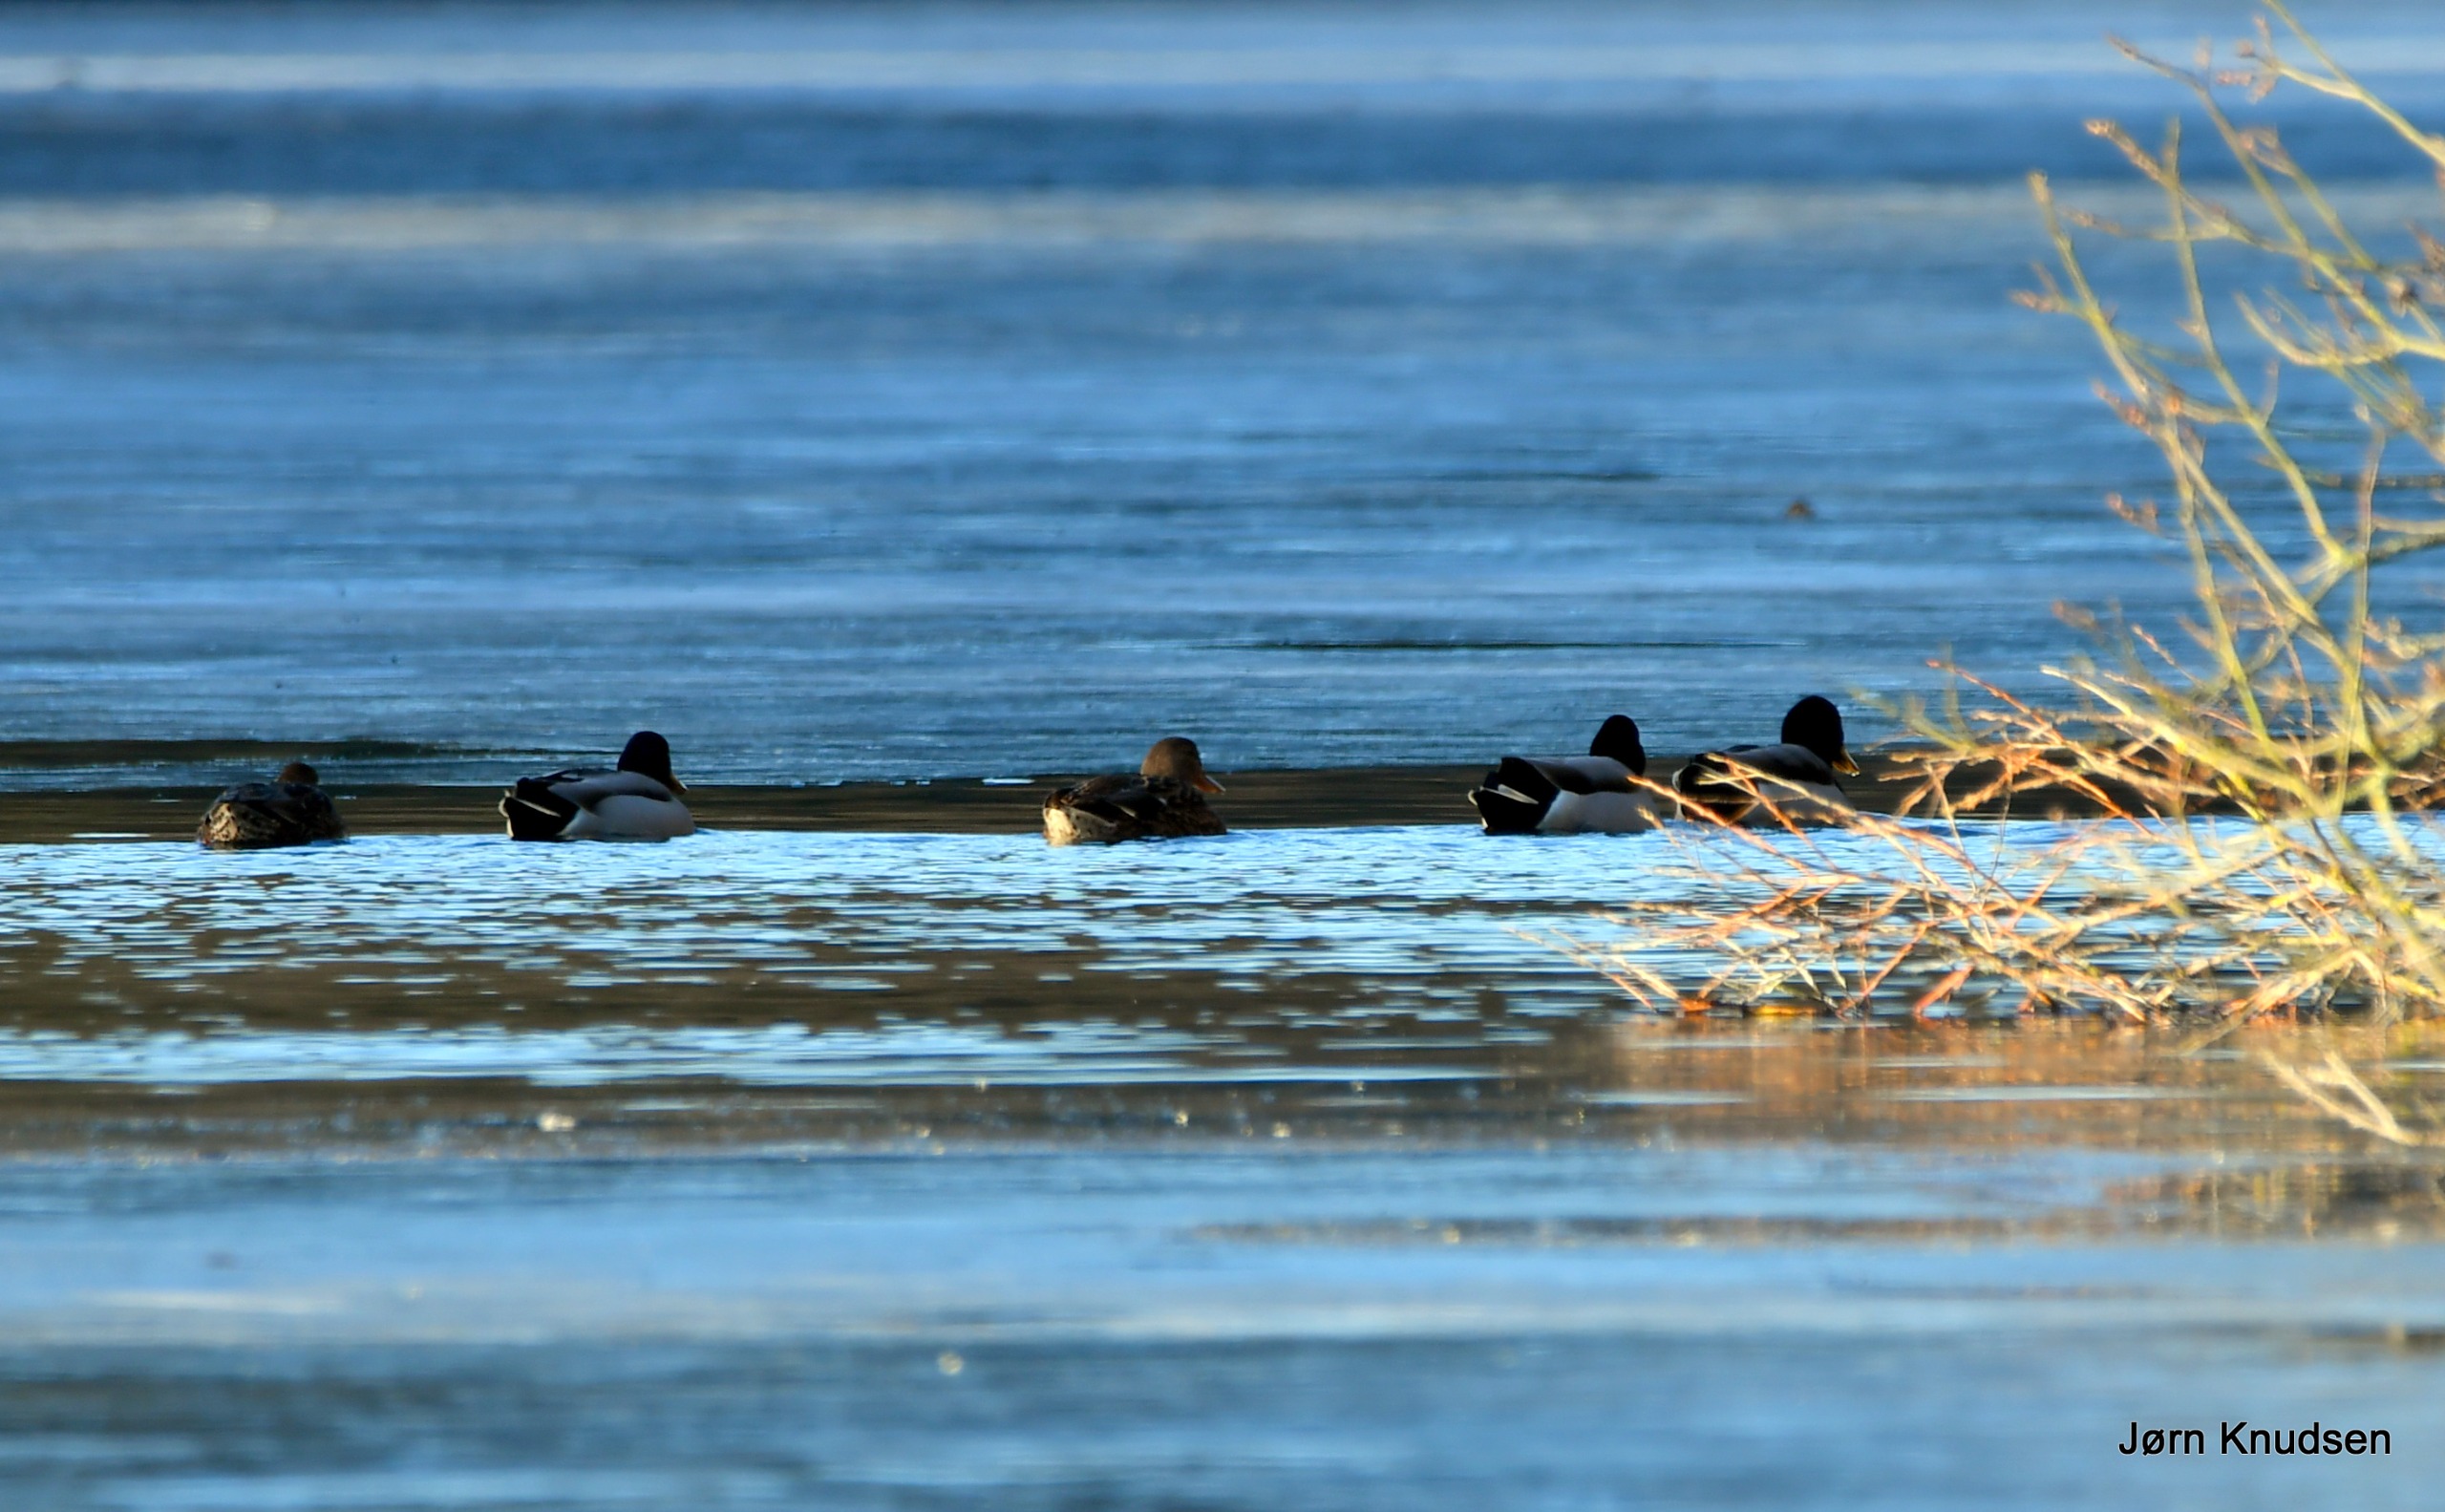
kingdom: Animalia
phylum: Chordata
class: Aves
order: Anseriformes
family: Anatidae
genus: Anas
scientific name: Anas platyrhynchos
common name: Gråand
